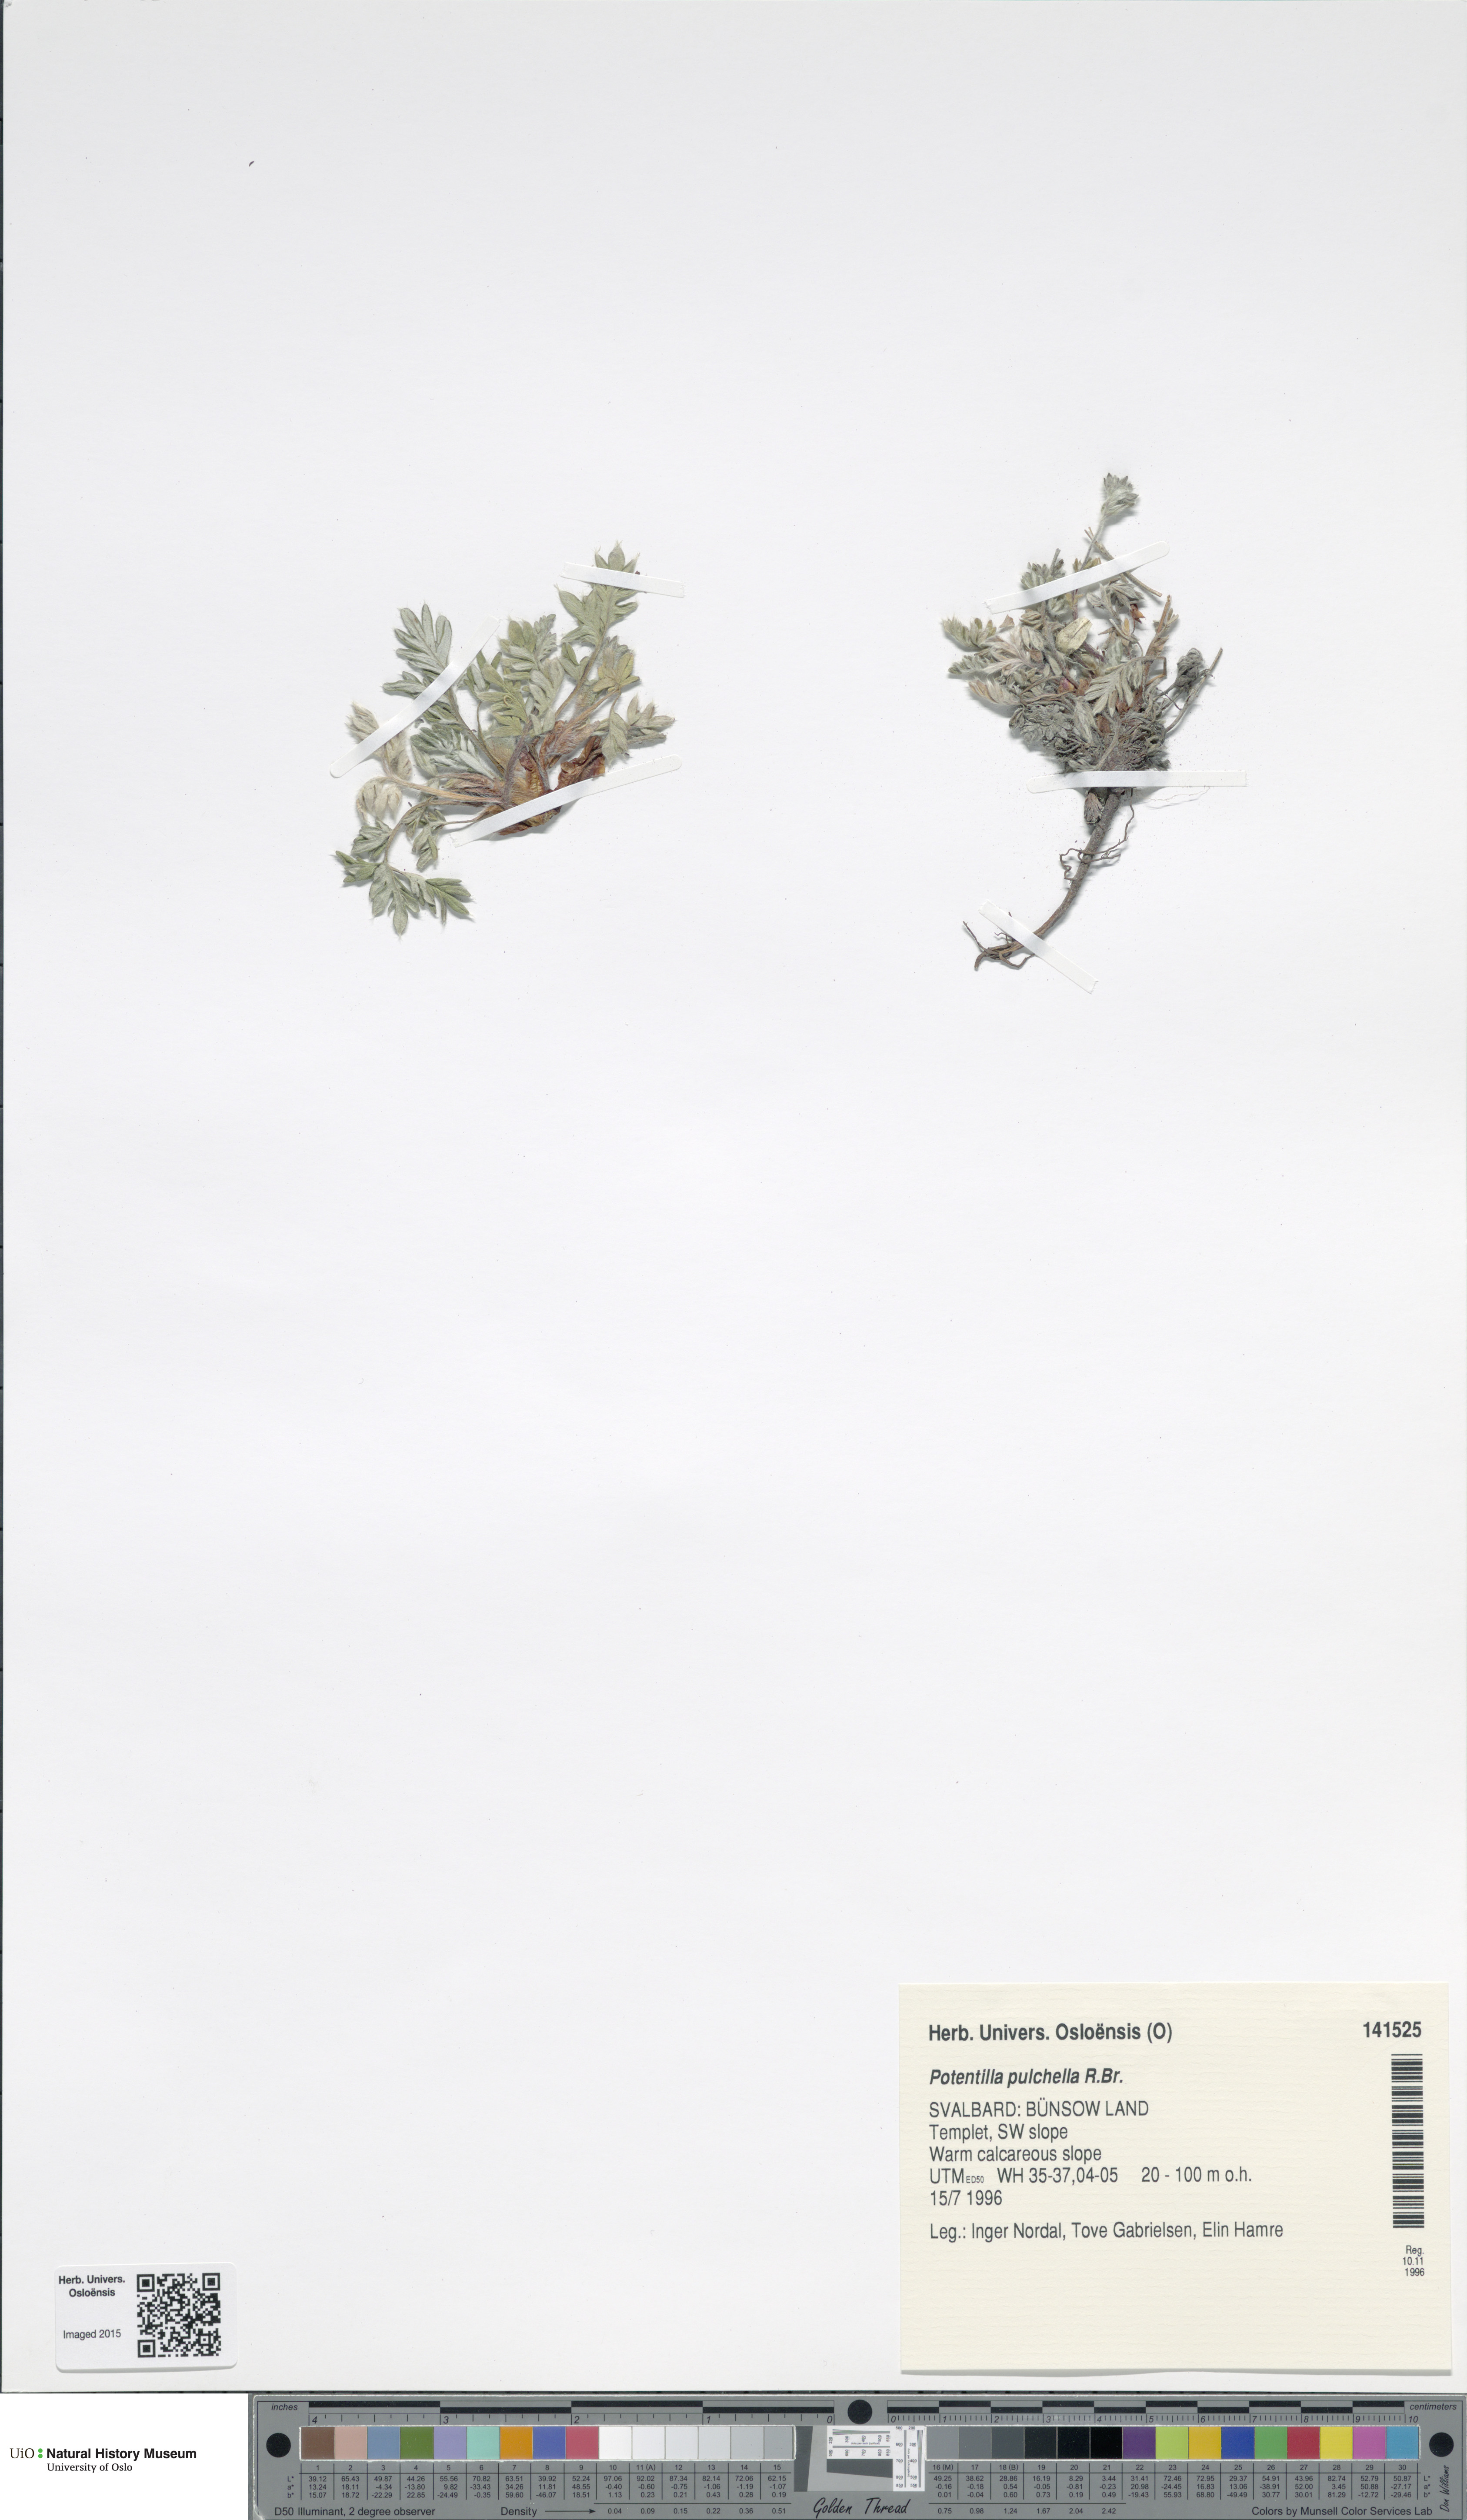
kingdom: Plantae
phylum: Tracheophyta
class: Magnoliopsida
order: Rosales
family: Rosaceae
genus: Potentilla
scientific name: Potentilla pulchella
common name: Pretty cinquefoil
